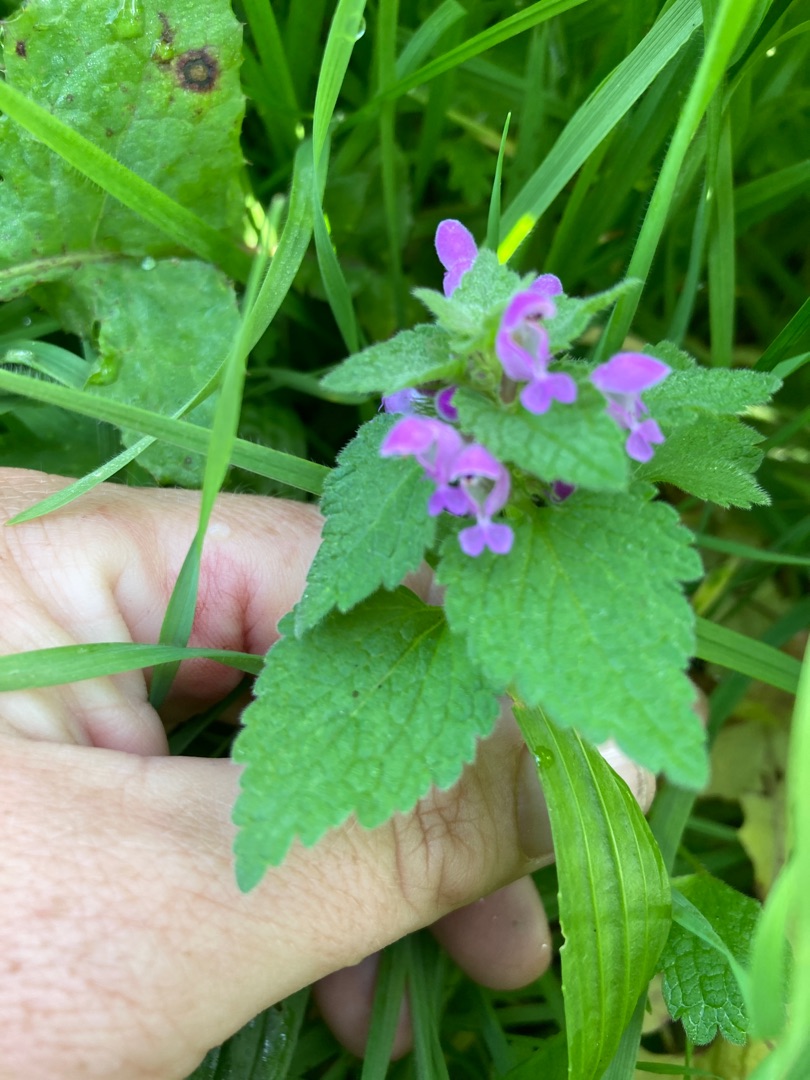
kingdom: Plantae
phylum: Tracheophyta
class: Magnoliopsida
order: Lamiales
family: Lamiaceae
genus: Lamium
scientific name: Lamium purpureum
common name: Rød tvetand
